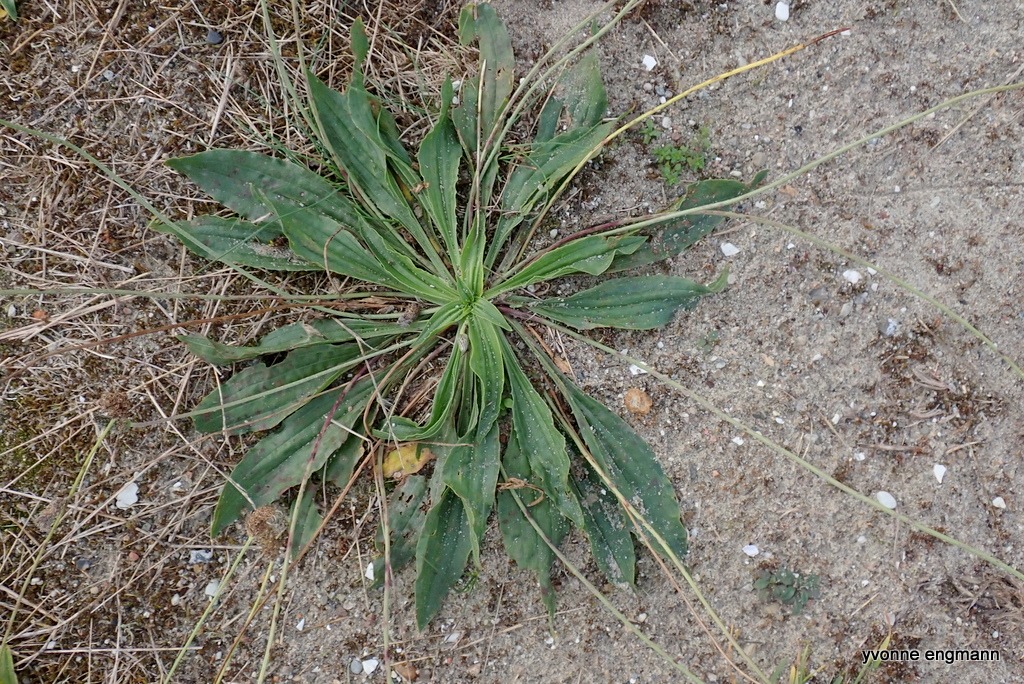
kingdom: Plantae
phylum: Tracheophyta
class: Magnoliopsida
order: Lamiales
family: Plantaginaceae
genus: Plantago
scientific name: Plantago lanceolata
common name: Lancet-vejbred
